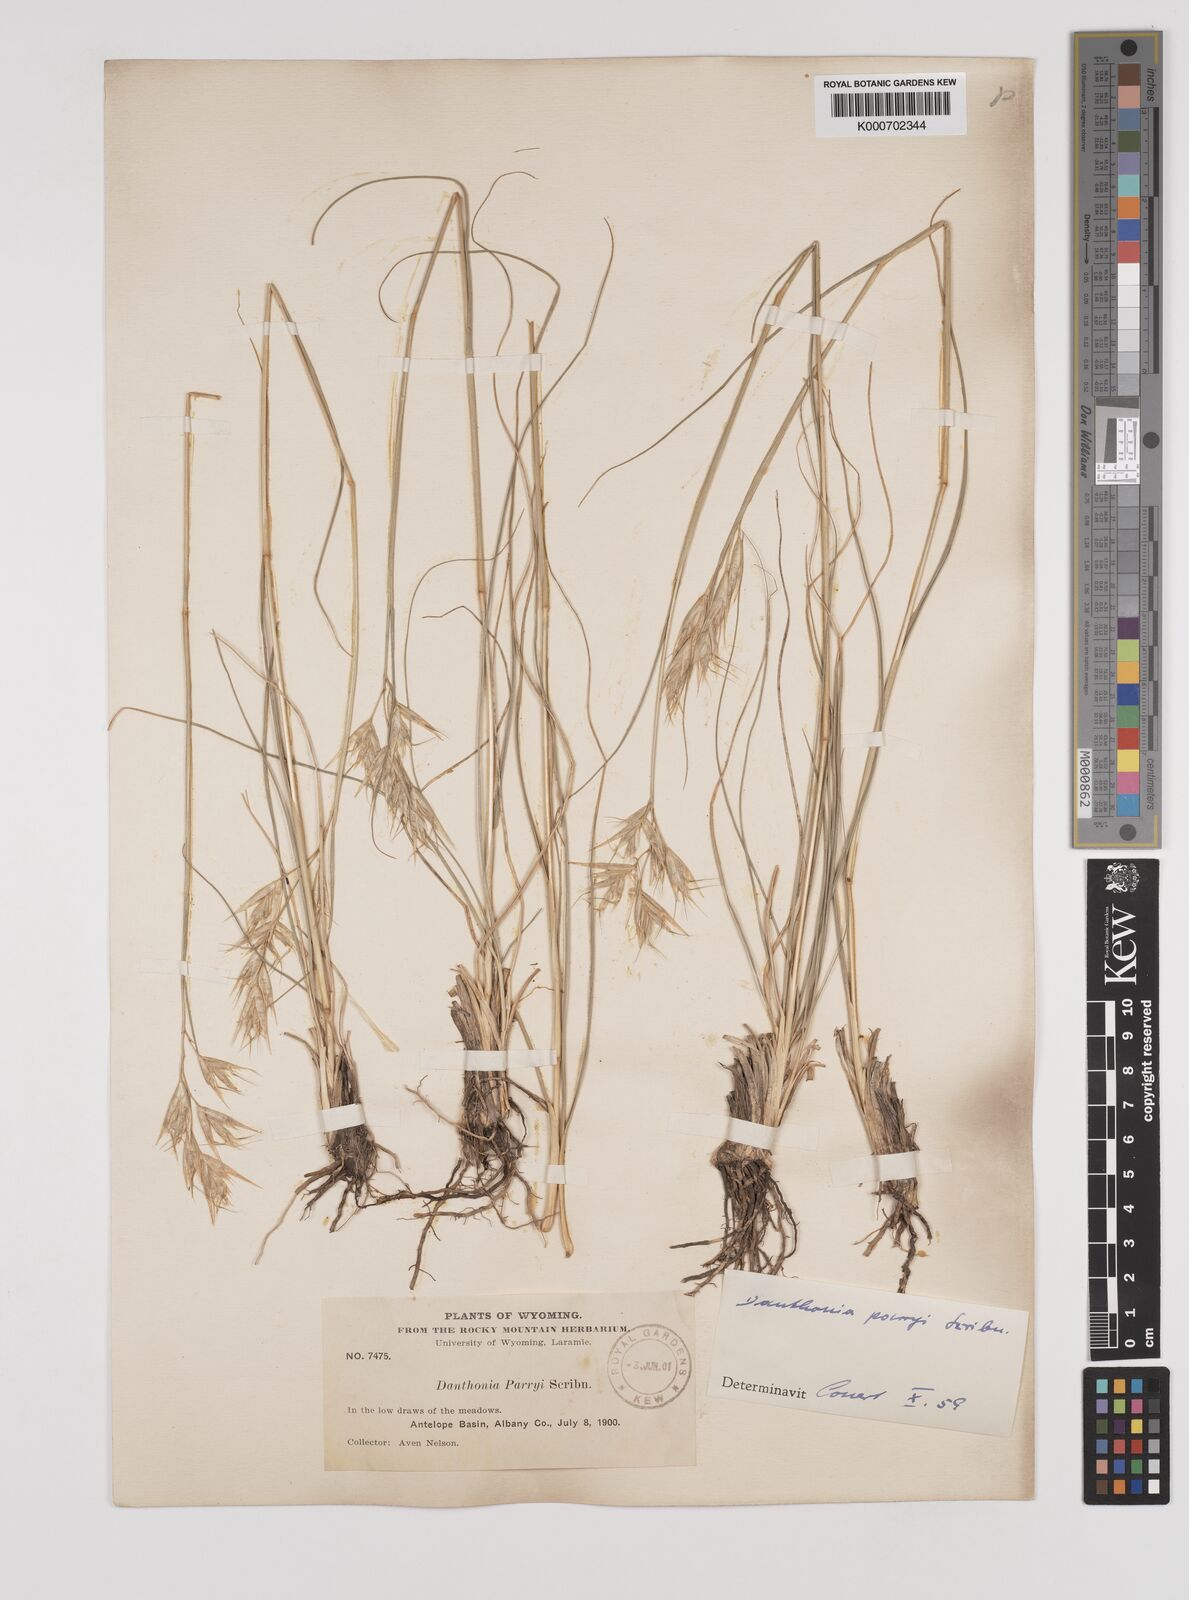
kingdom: Plantae
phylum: Tracheophyta
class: Liliopsida
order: Poales
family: Poaceae
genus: Danthonia
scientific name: Danthonia parryi
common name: Parry's oat grass
